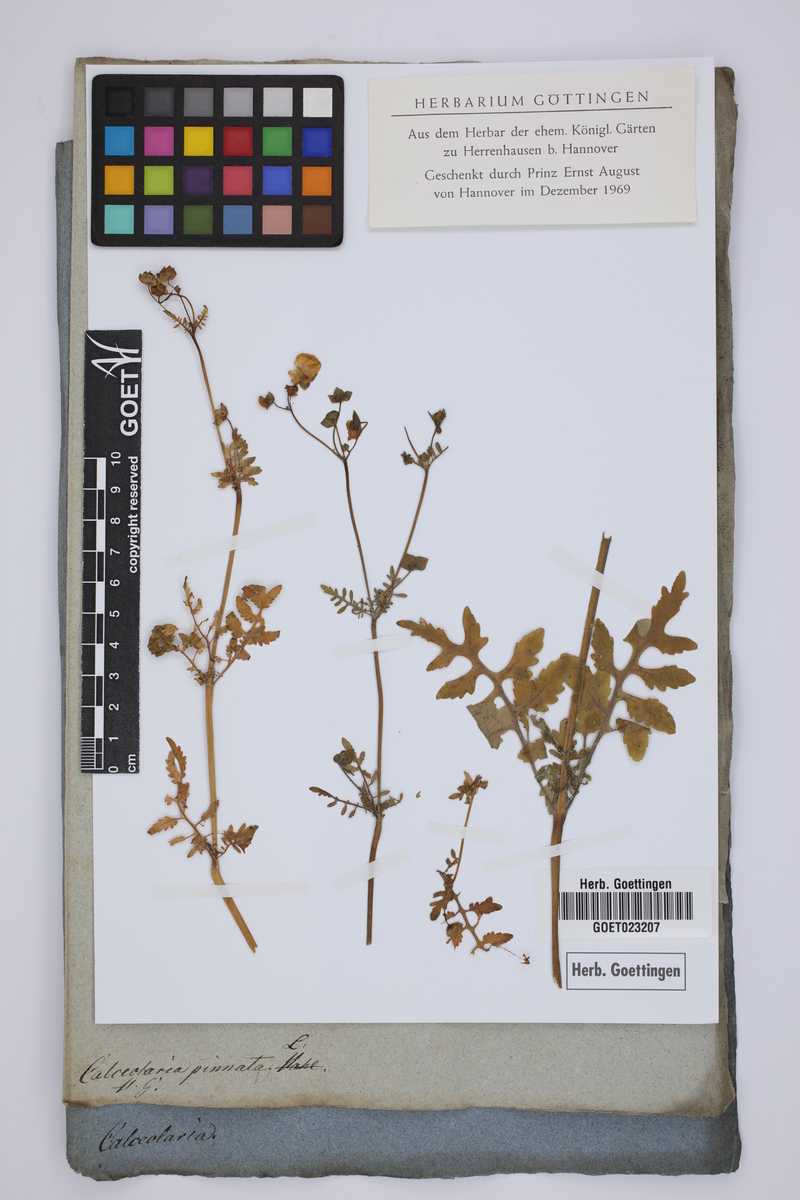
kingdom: Plantae
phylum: Tracheophyta
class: Magnoliopsida
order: Lamiales
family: Calceolariaceae
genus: Calceolaria
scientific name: Calceolaria pinnata
